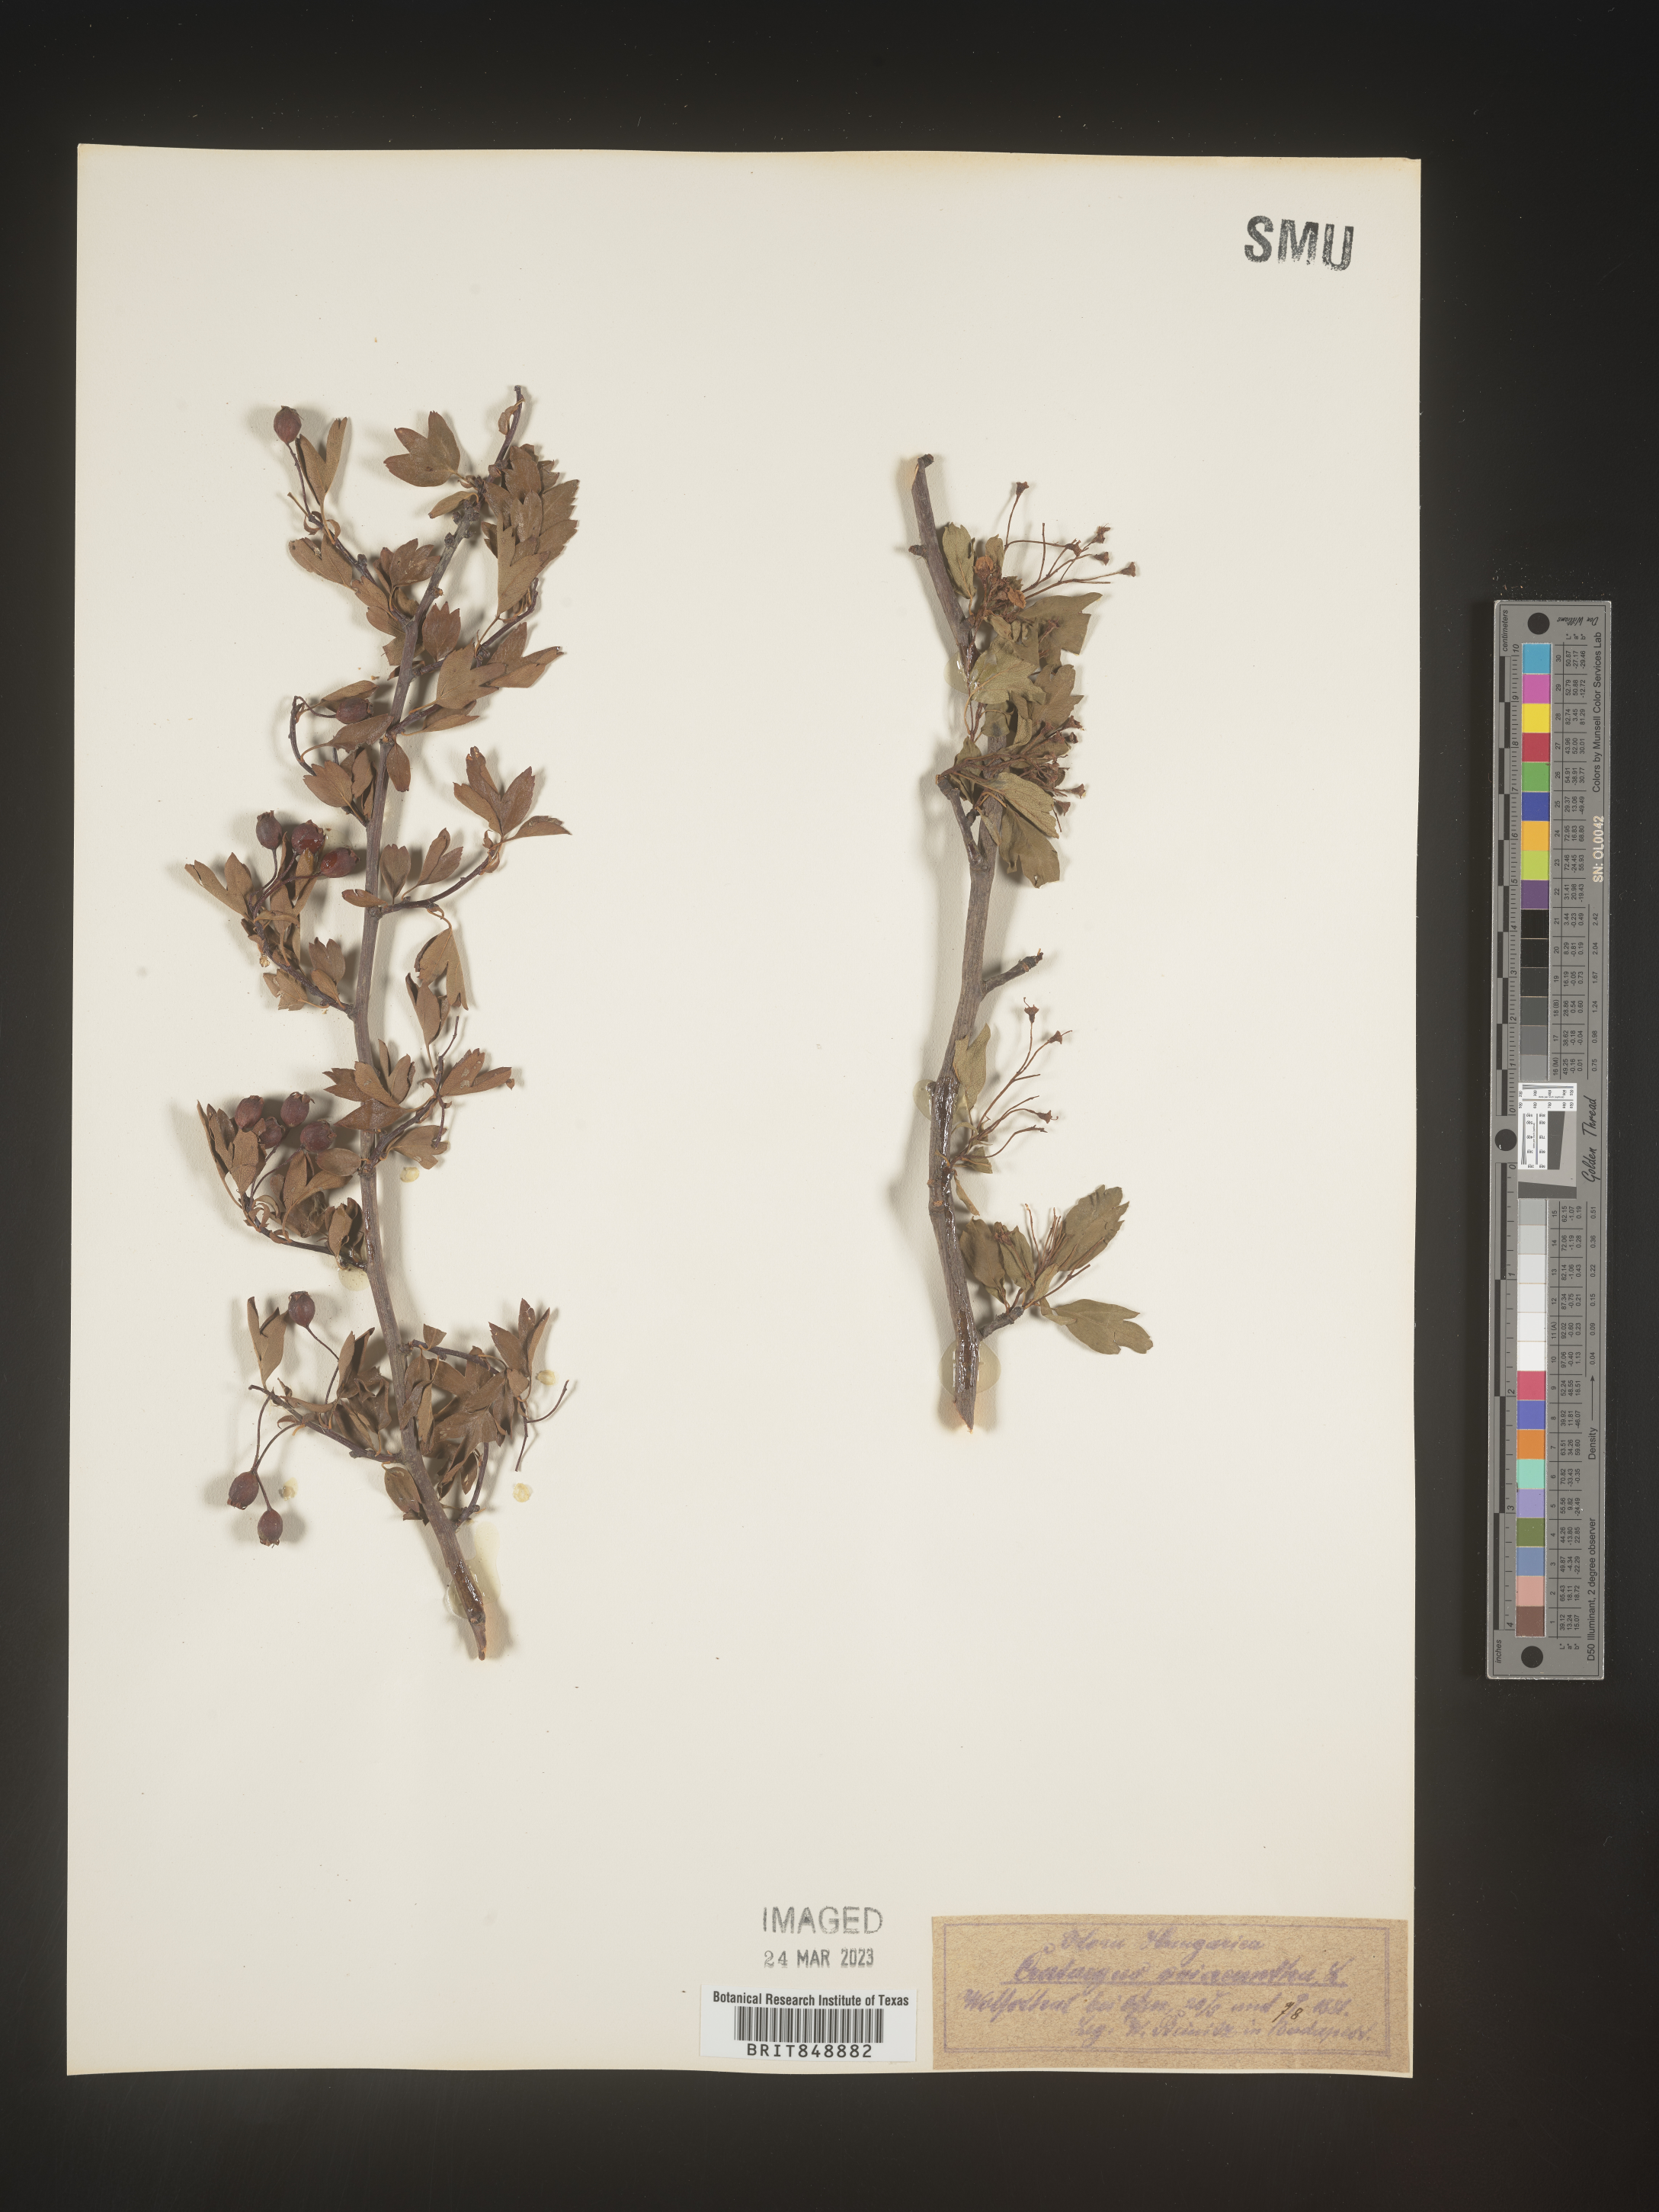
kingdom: Plantae
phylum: Tracheophyta
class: Magnoliopsida
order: Rosales
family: Rosaceae
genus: Crataegus
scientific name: Crataegus
